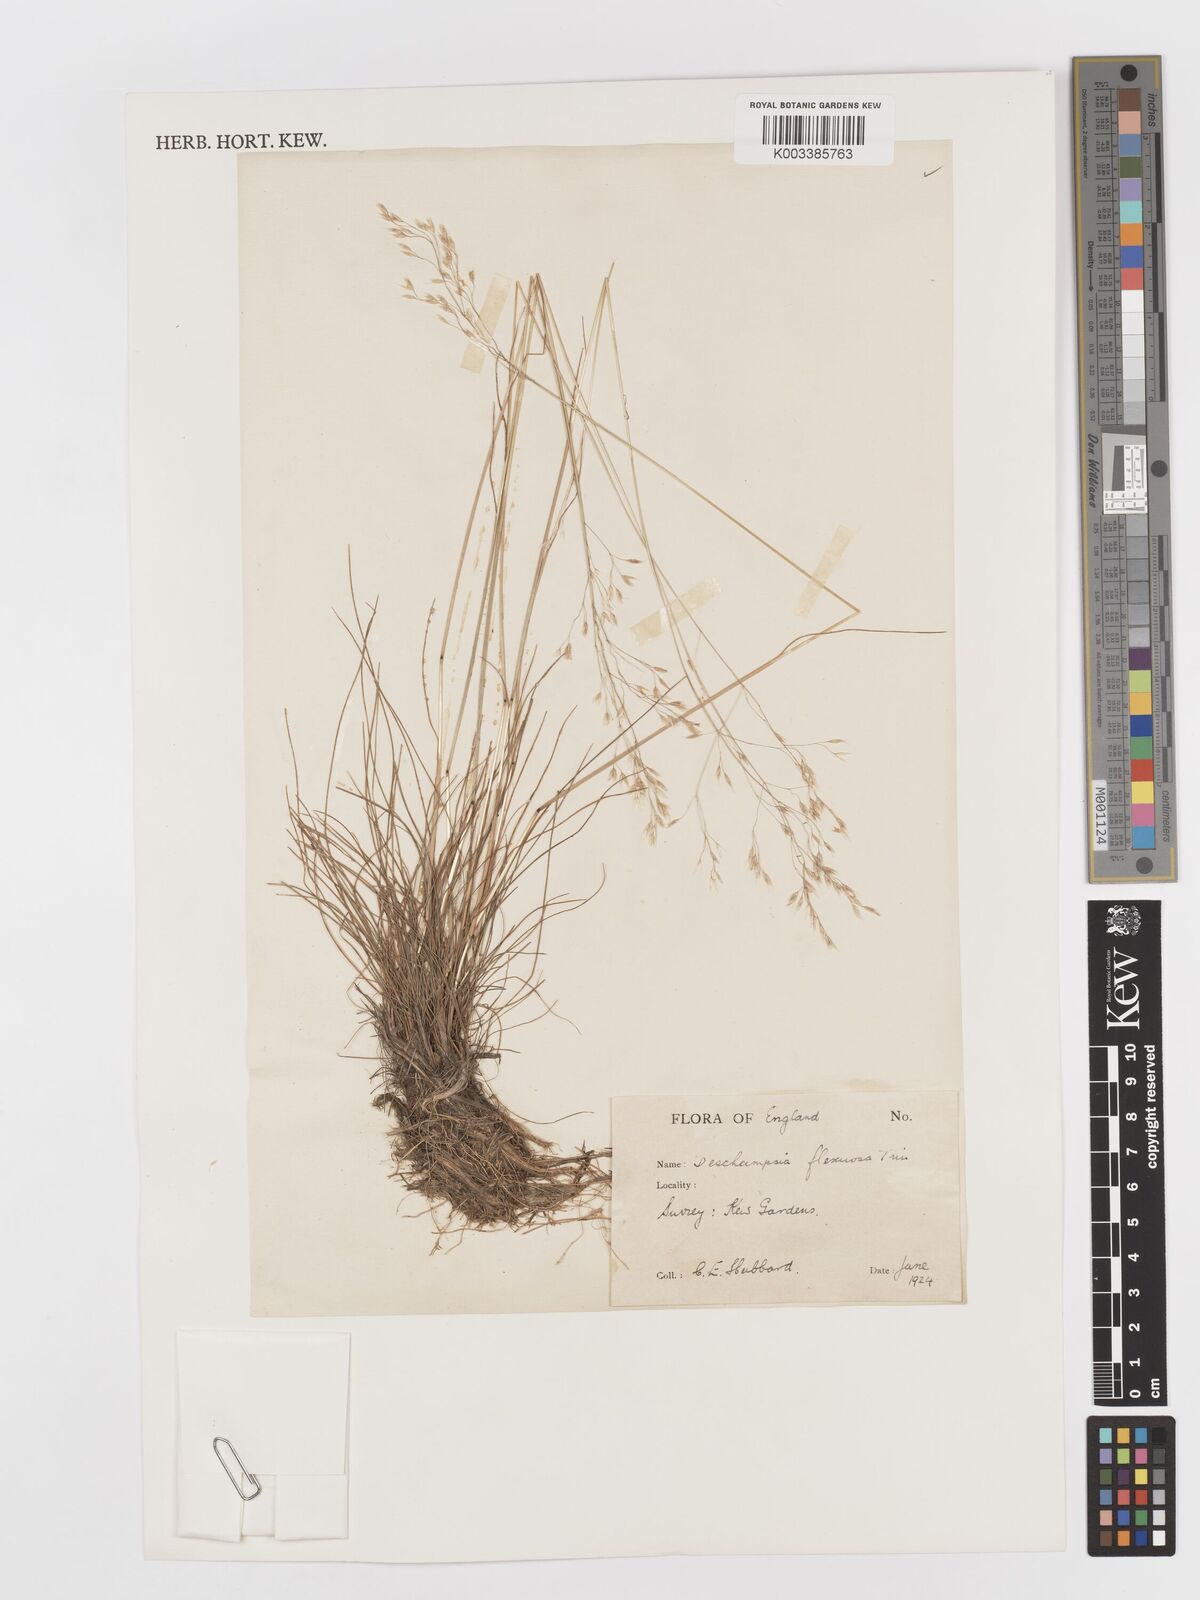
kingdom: Plantae
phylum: Tracheophyta
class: Liliopsida
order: Poales
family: Poaceae
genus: Avenella
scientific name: Avenella flexuosa
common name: Wavy hairgrass
